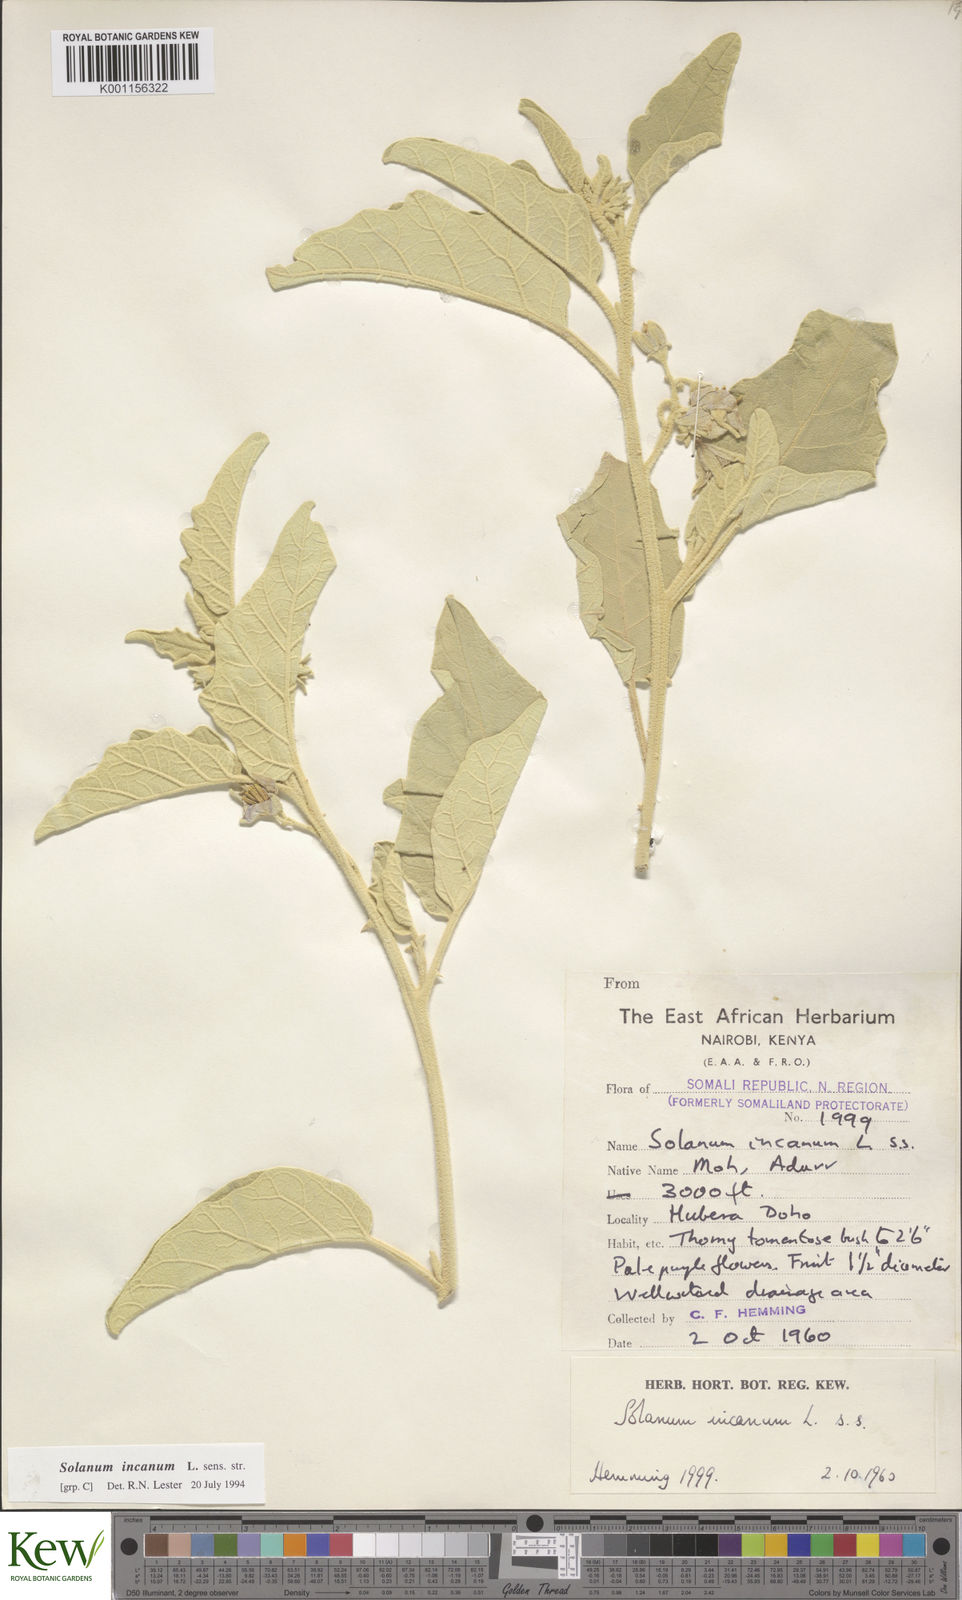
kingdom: Plantae
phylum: Tracheophyta
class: Magnoliopsida
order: Solanales
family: Solanaceae
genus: Solanum
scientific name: Solanum incanum
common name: Bitter apple
